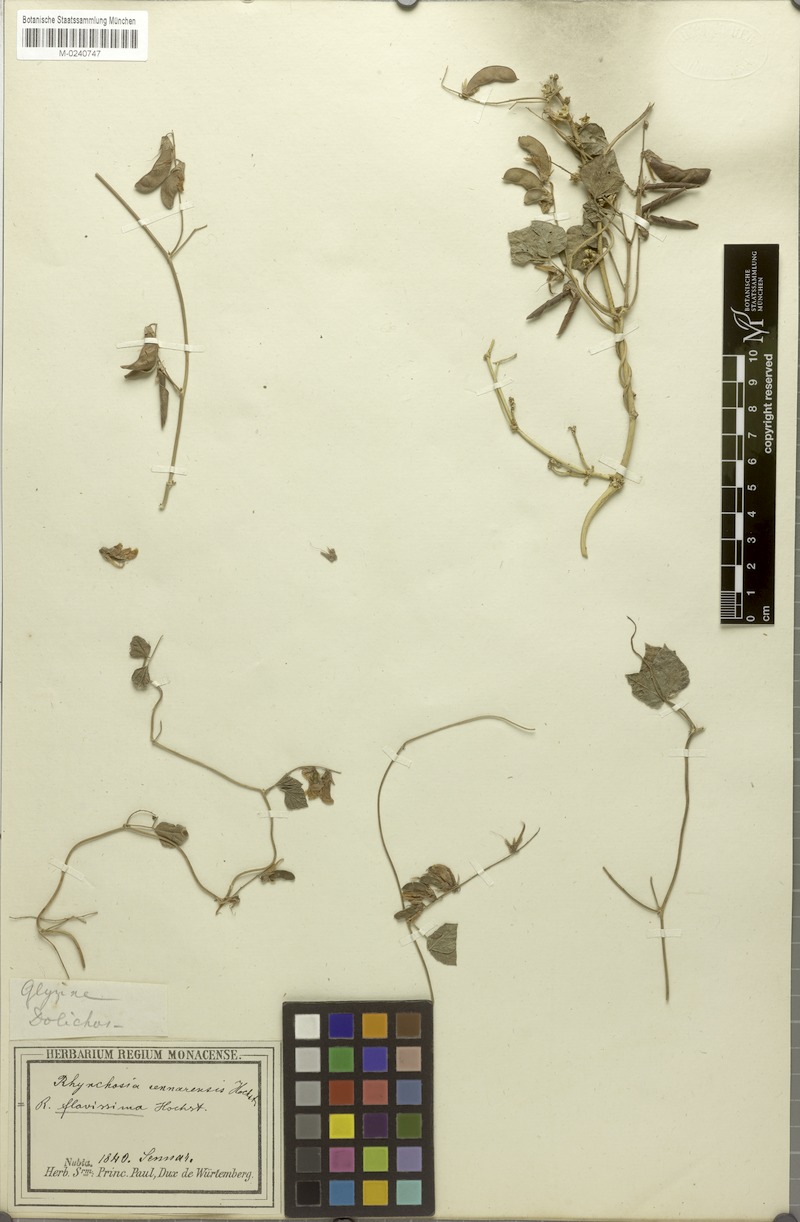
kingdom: Plantae
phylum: Tracheophyta
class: Magnoliopsida
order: Fabales
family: Fabaceae
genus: Rhynchosia
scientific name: Rhynchosia malacophylla
